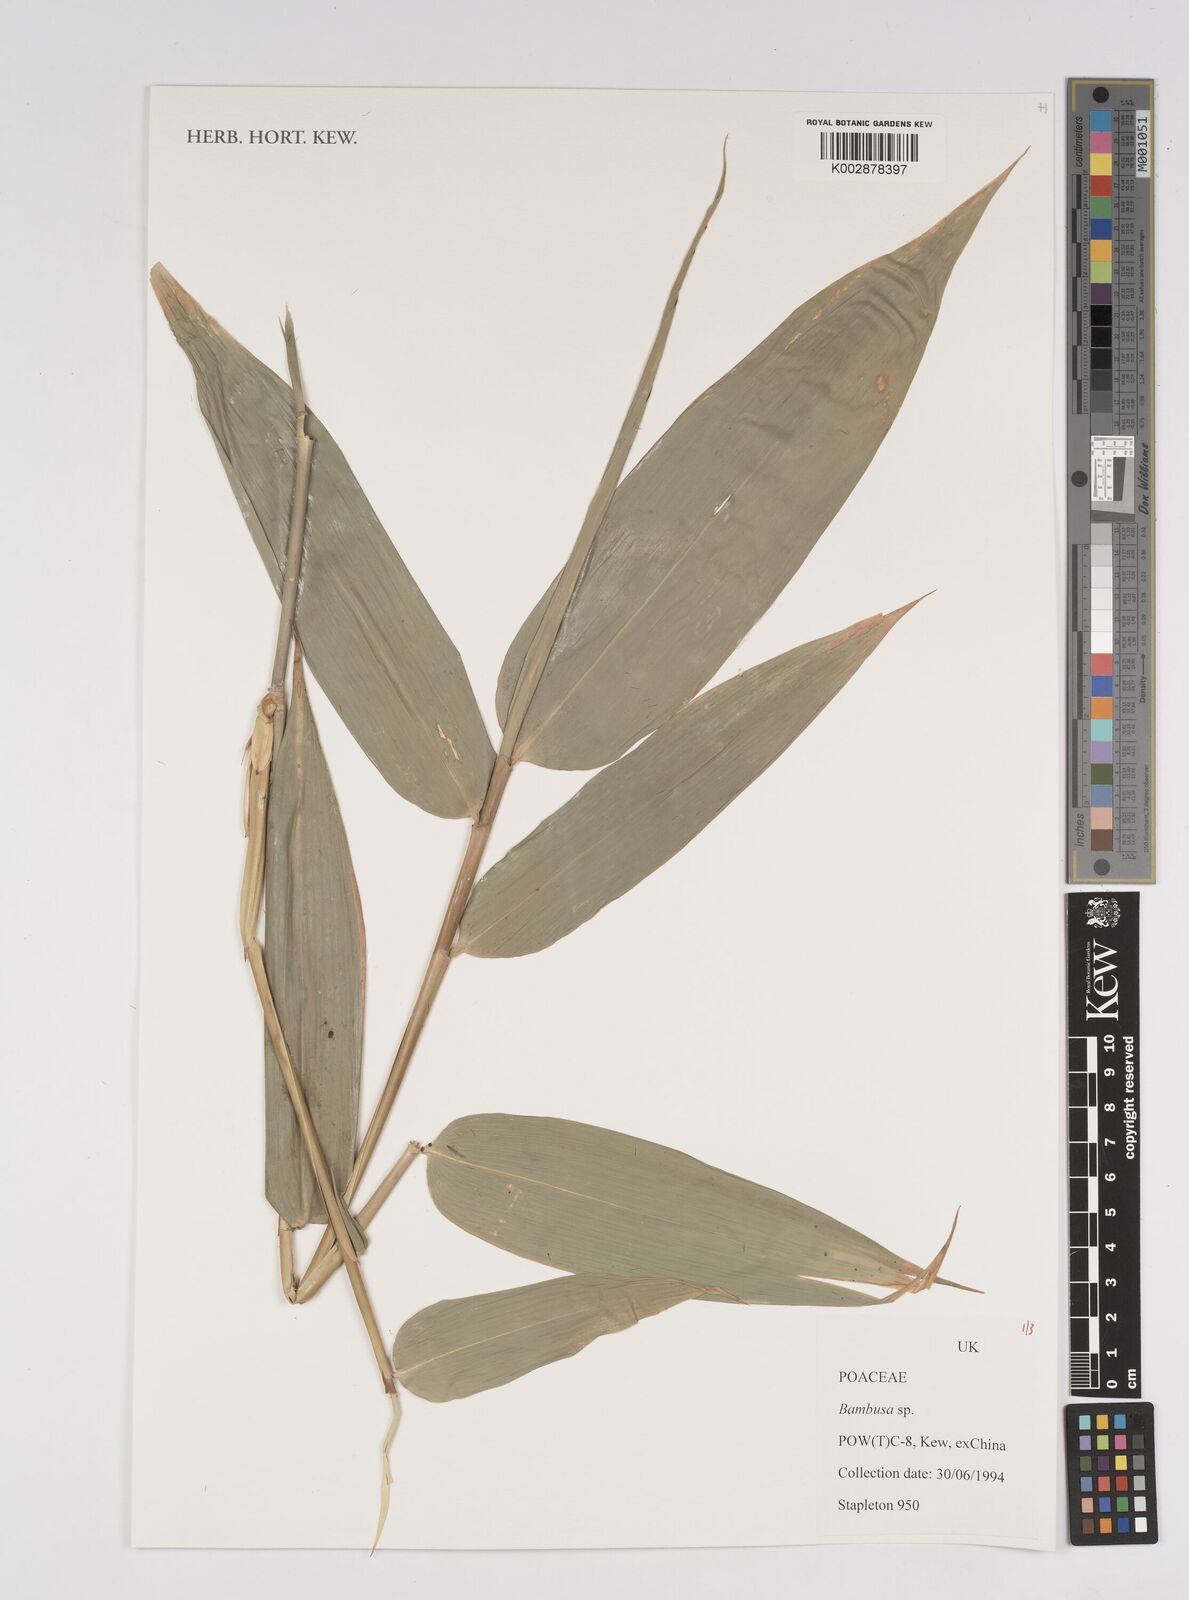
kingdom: Plantae
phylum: Tracheophyta
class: Liliopsida
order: Poales
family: Poaceae
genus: Bambusa
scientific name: Bambusa
